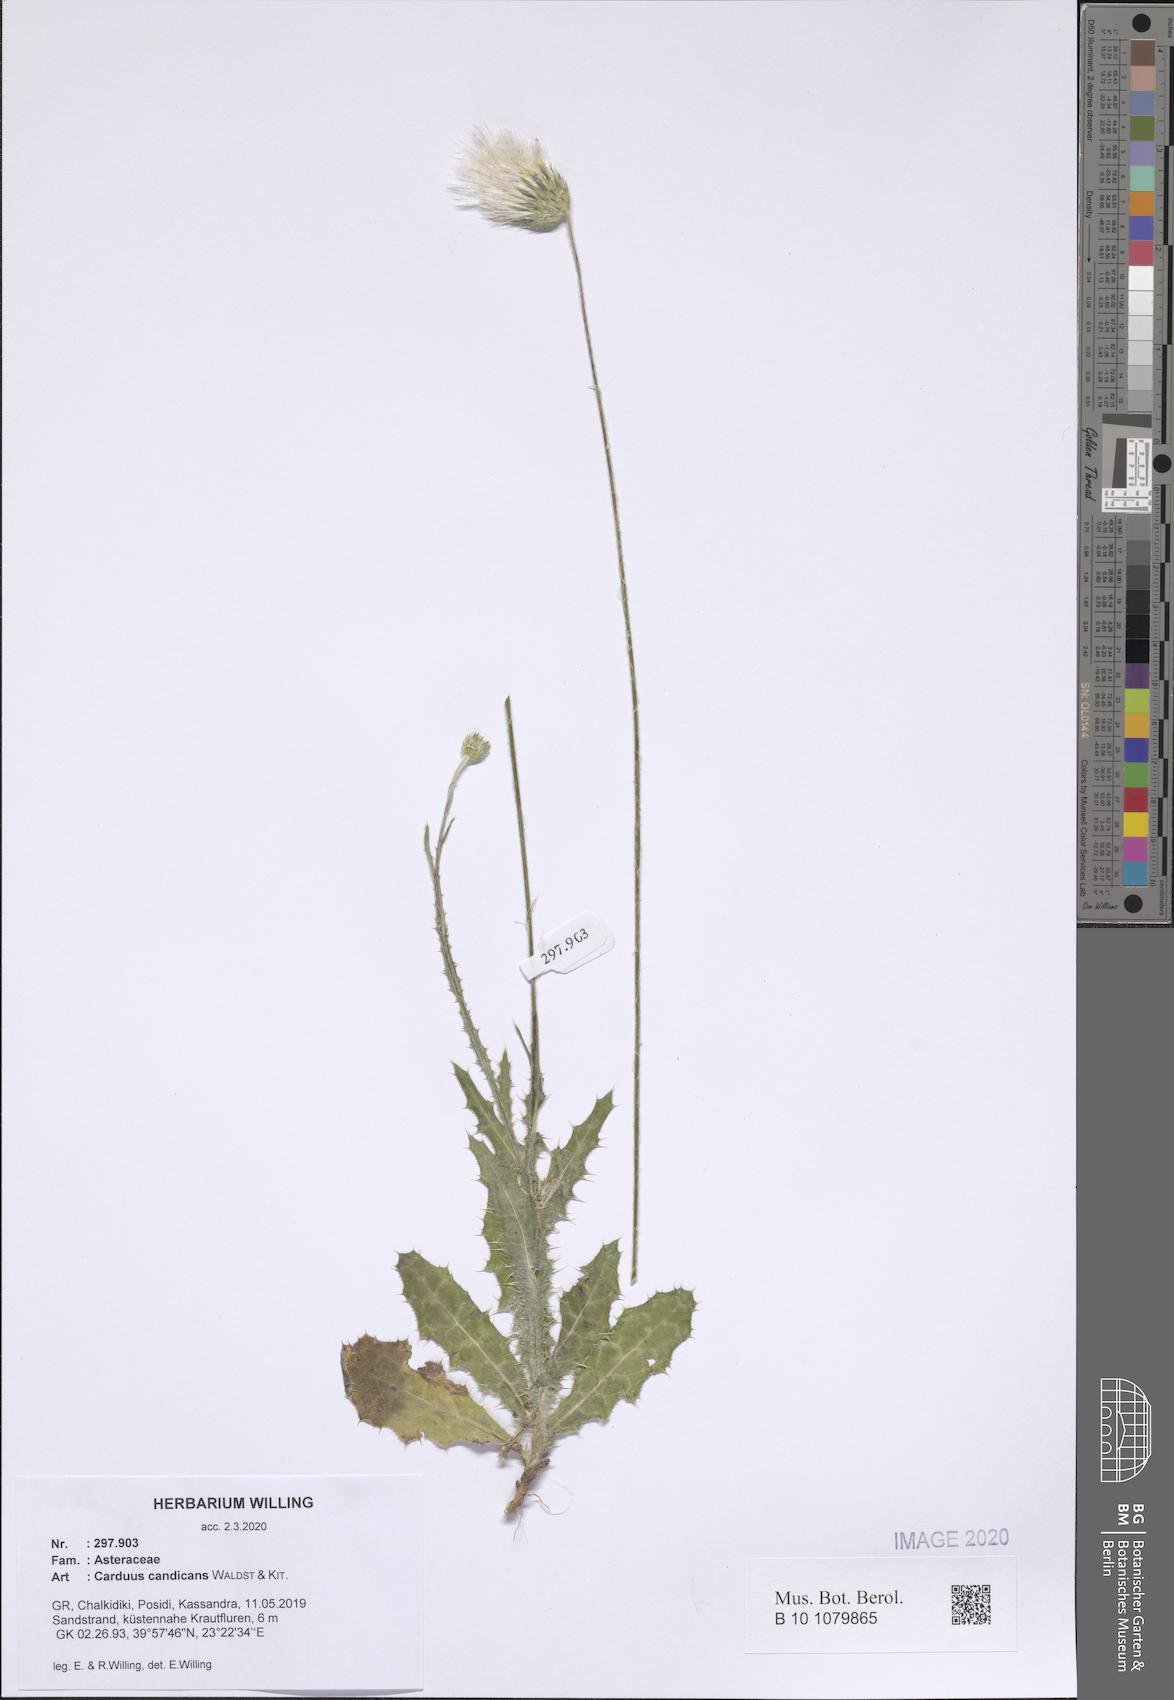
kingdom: Plantae
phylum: Tracheophyta
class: Magnoliopsida
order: Asterales
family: Asteraceae
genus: Carduus
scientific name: Carduus candicans
